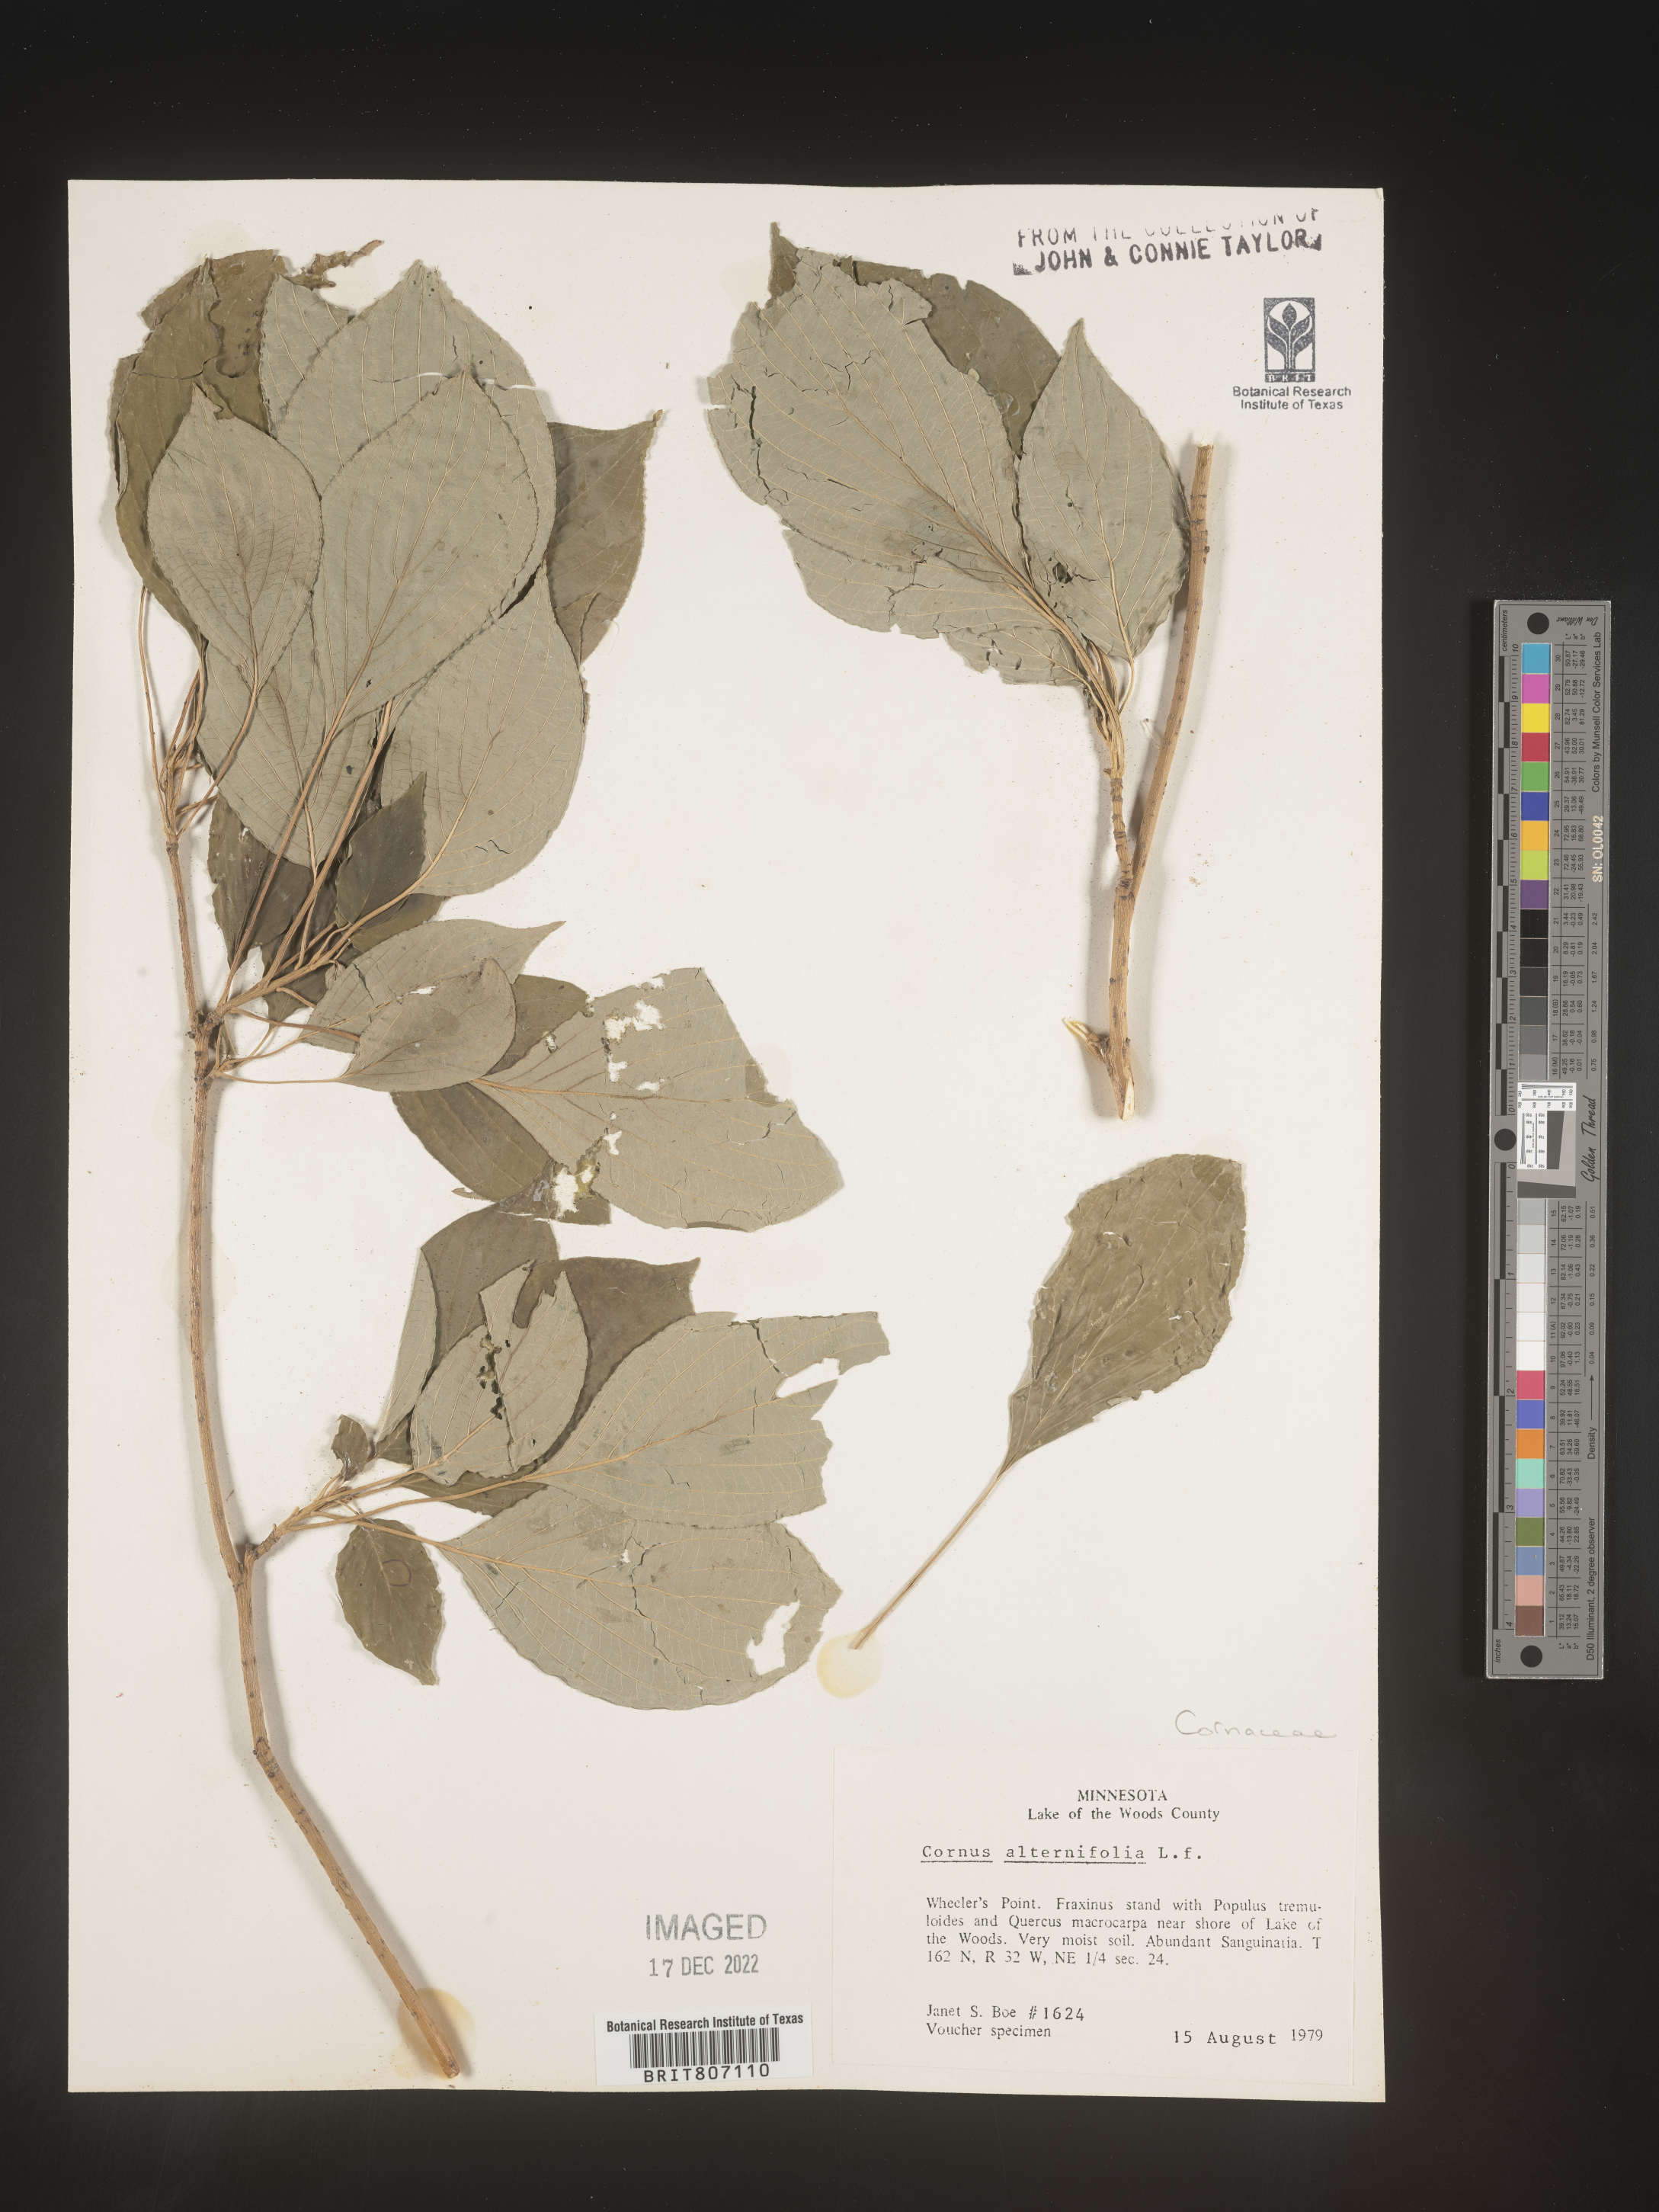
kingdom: Plantae
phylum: Tracheophyta
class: Magnoliopsida
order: Cornales
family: Cornaceae
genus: Cornus
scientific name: Cornus alternifolia
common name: Pagoda dogwood
